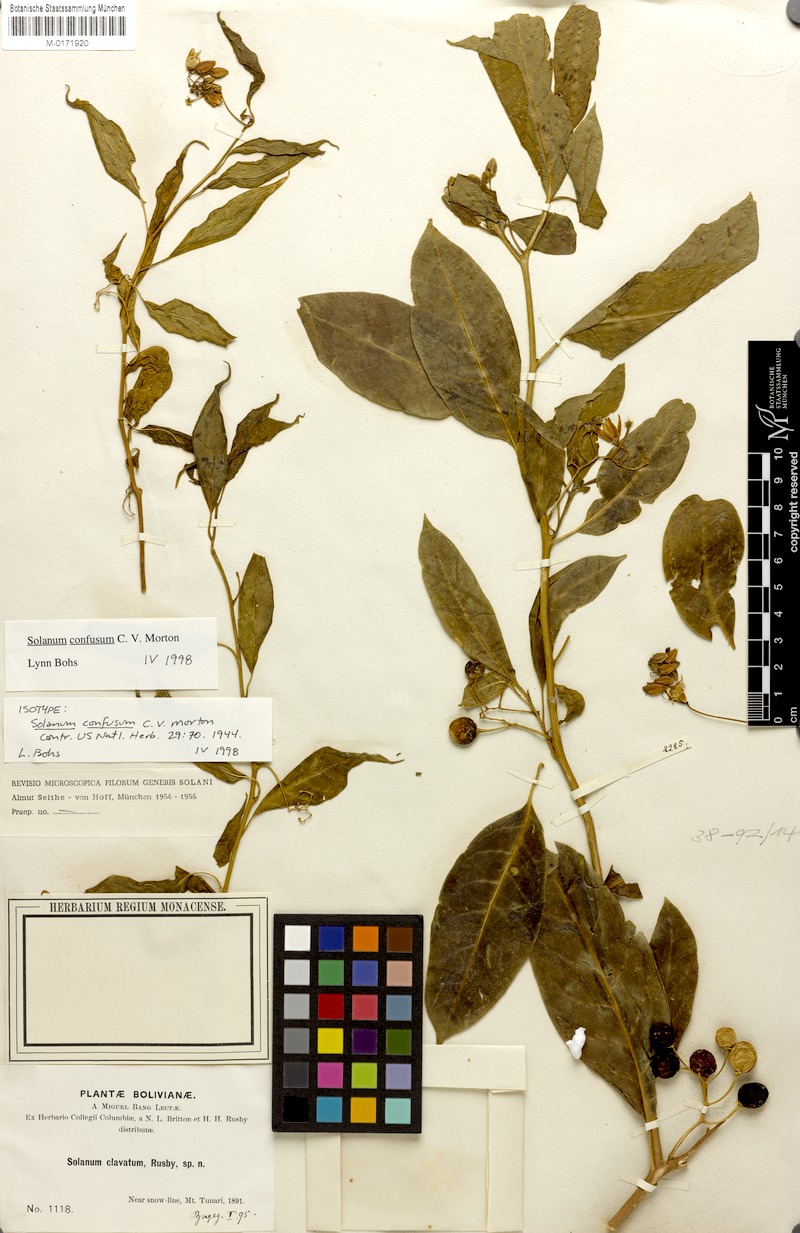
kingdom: Plantae
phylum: Tracheophyta
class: Magnoliopsida
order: Solanales
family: Solanaceae
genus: Solanum
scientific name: Solanum confusum
